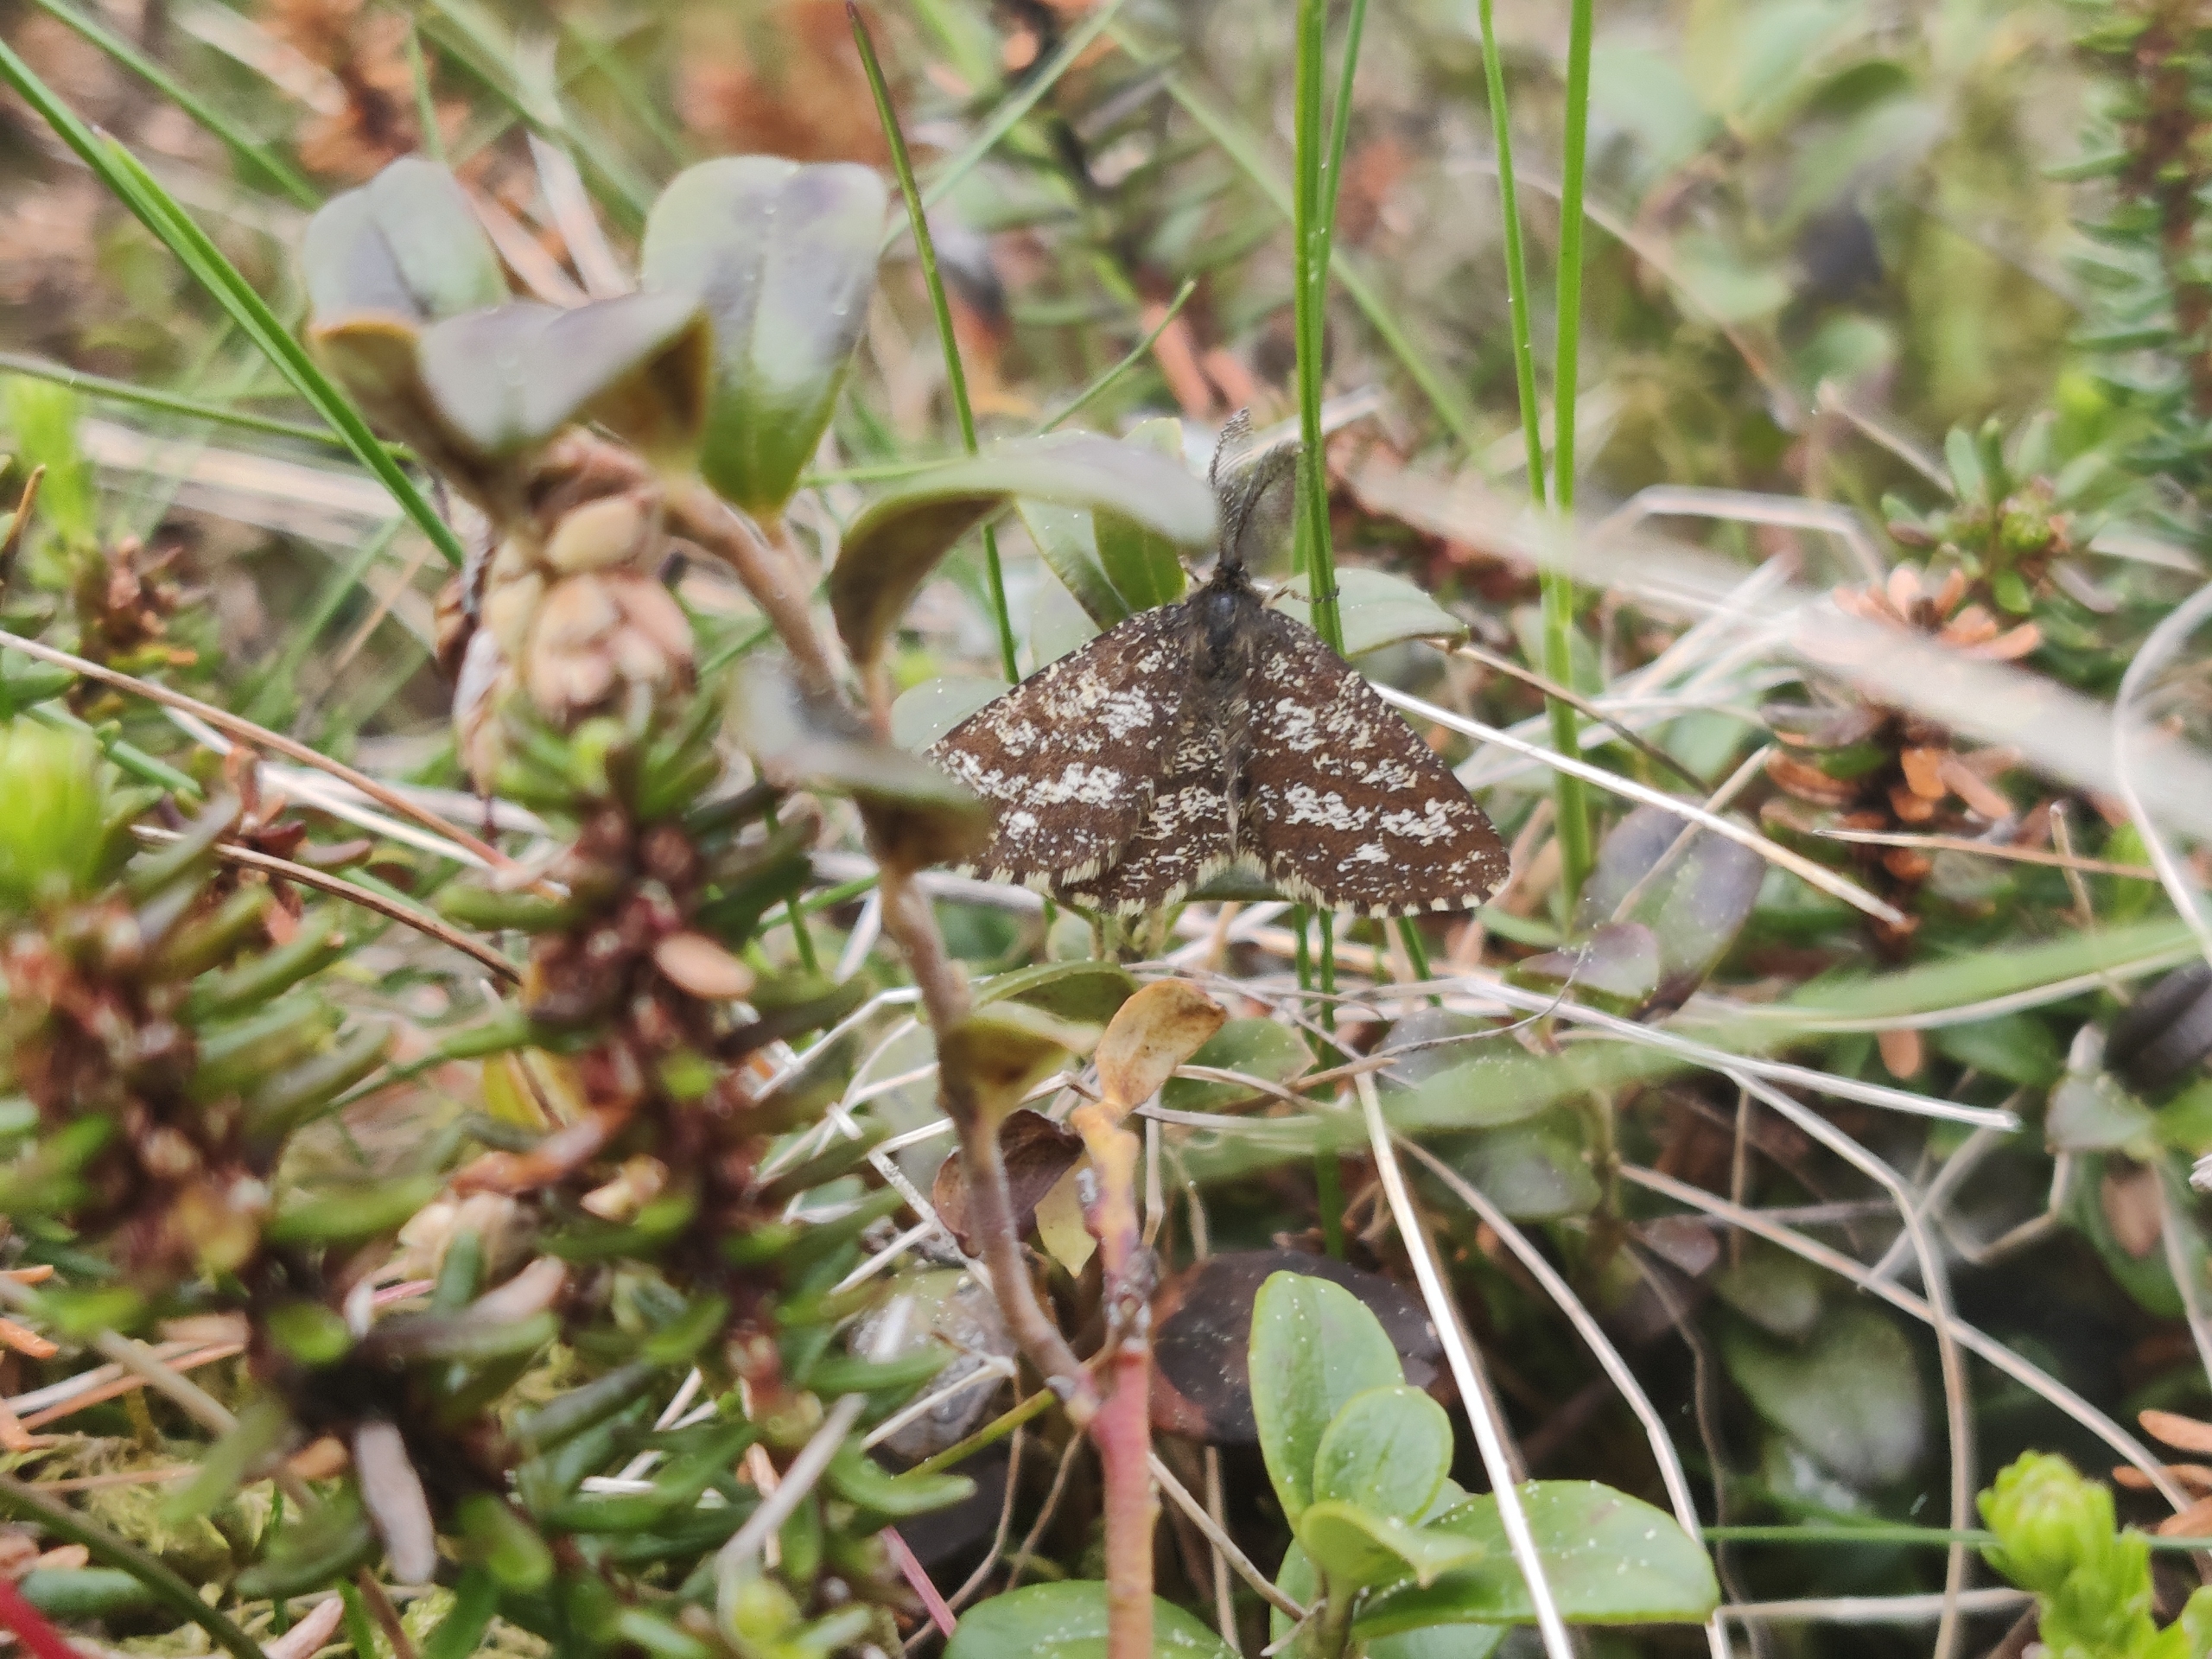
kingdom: Animalia
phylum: Arthropoda
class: Insecta
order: Lepidoptera
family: Geometridae
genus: Ematurga
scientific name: Ematurga atomaria
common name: Lyngmåler
